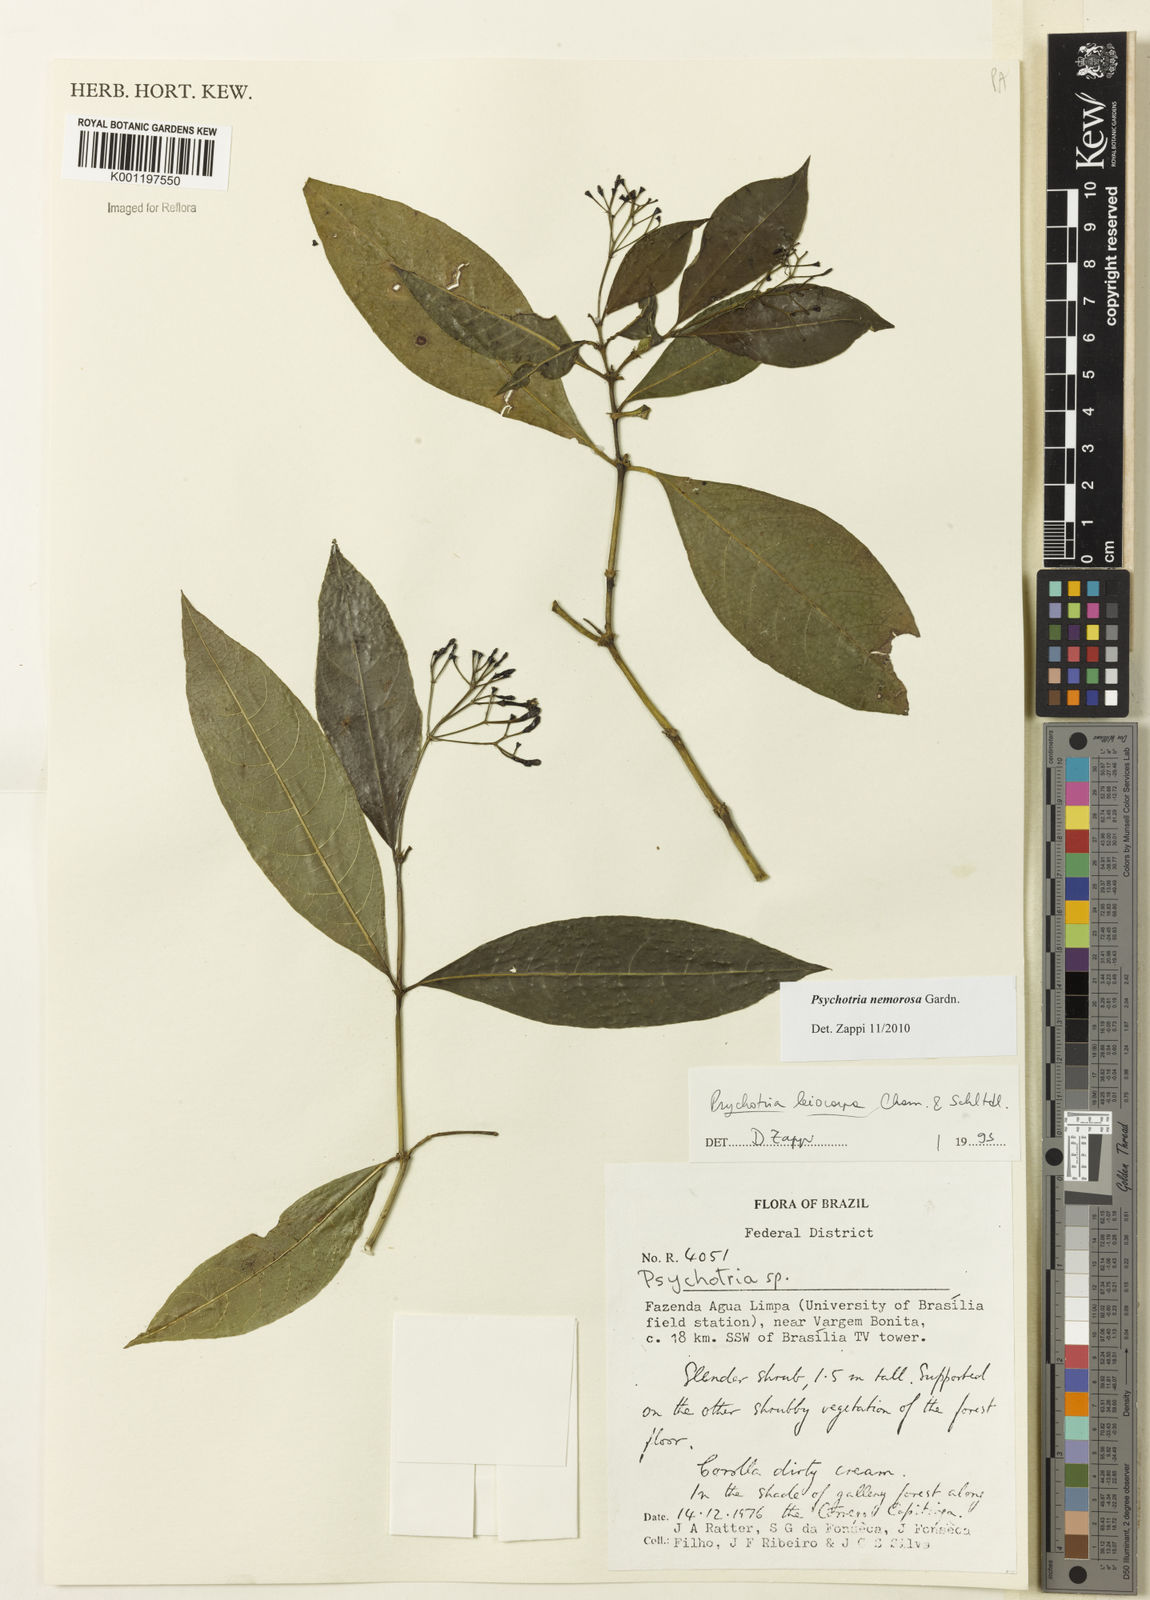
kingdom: Plantae
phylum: Tracheophyta
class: Magnoliopsida
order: Gentianales
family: Rubiaceae
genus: Psychotria
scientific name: Psychotria nemorosa
